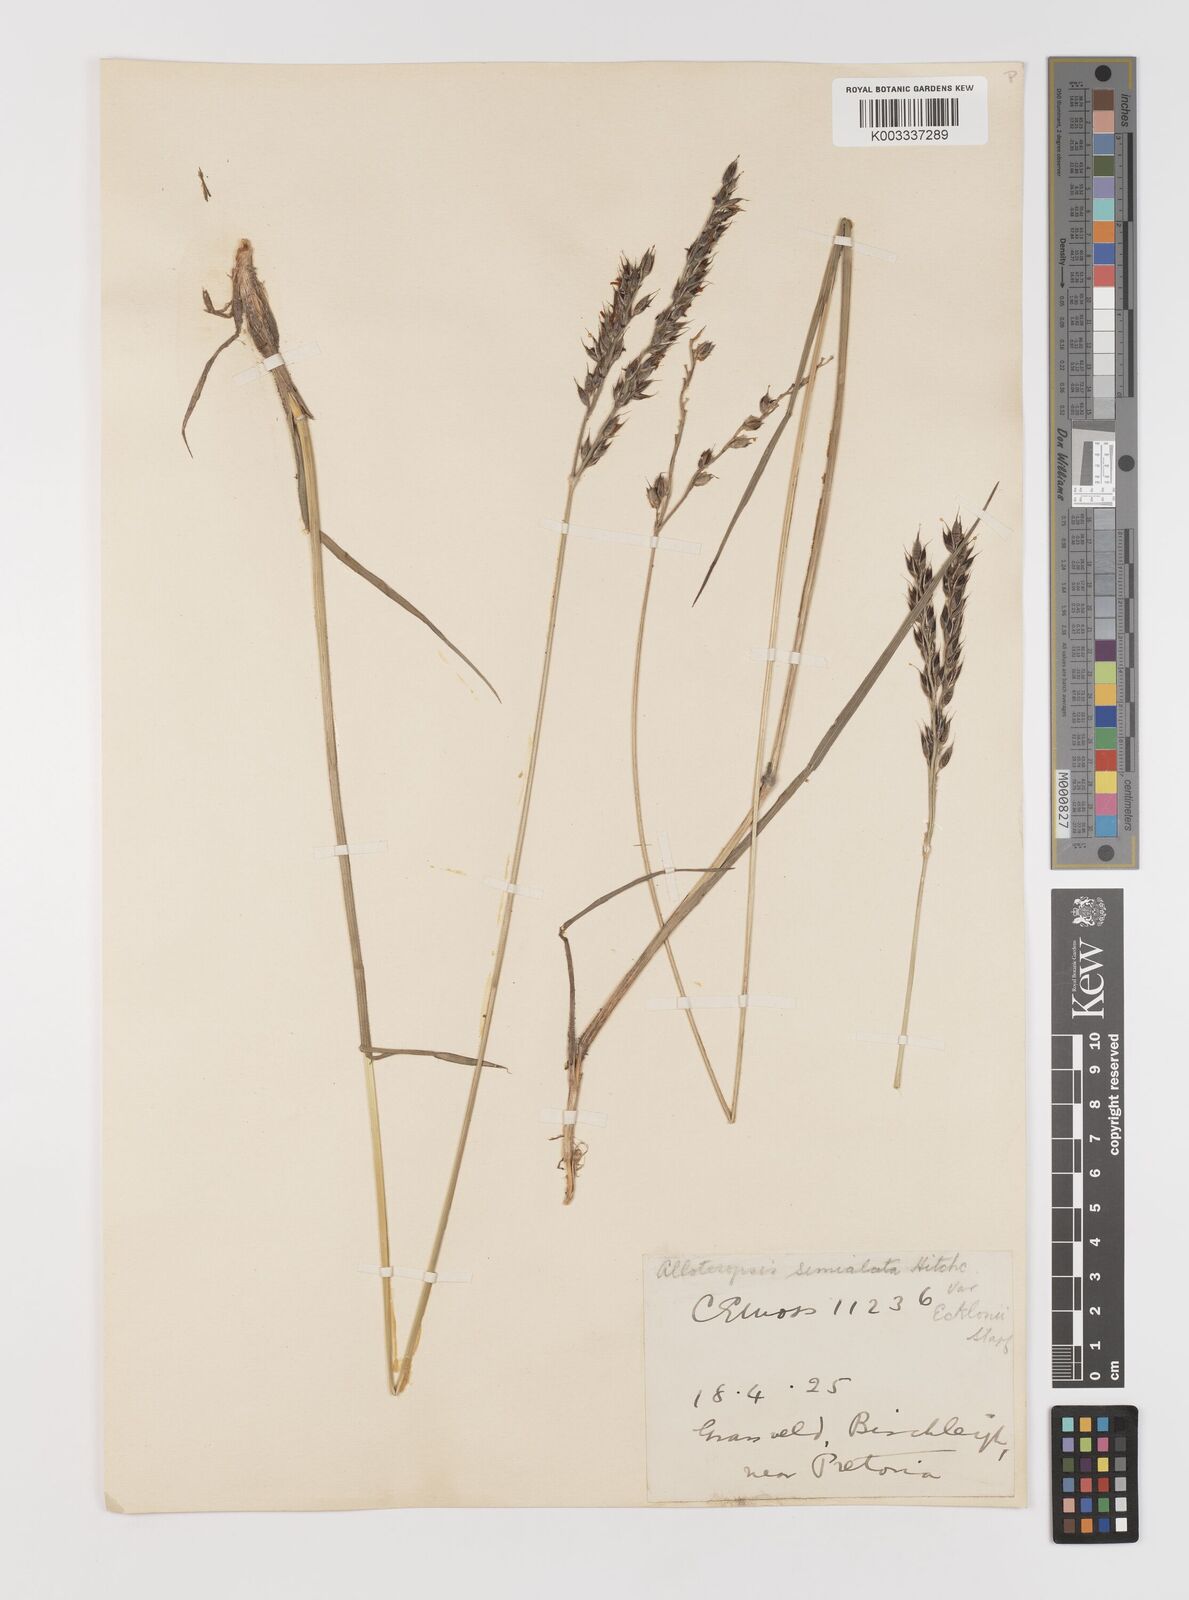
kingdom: Plantae
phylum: Tracheophyta
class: Liliopsida
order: Poales
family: Poaceae
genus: Alloteropsis
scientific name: Alloteropsis semialata
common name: Cockatoo grass
